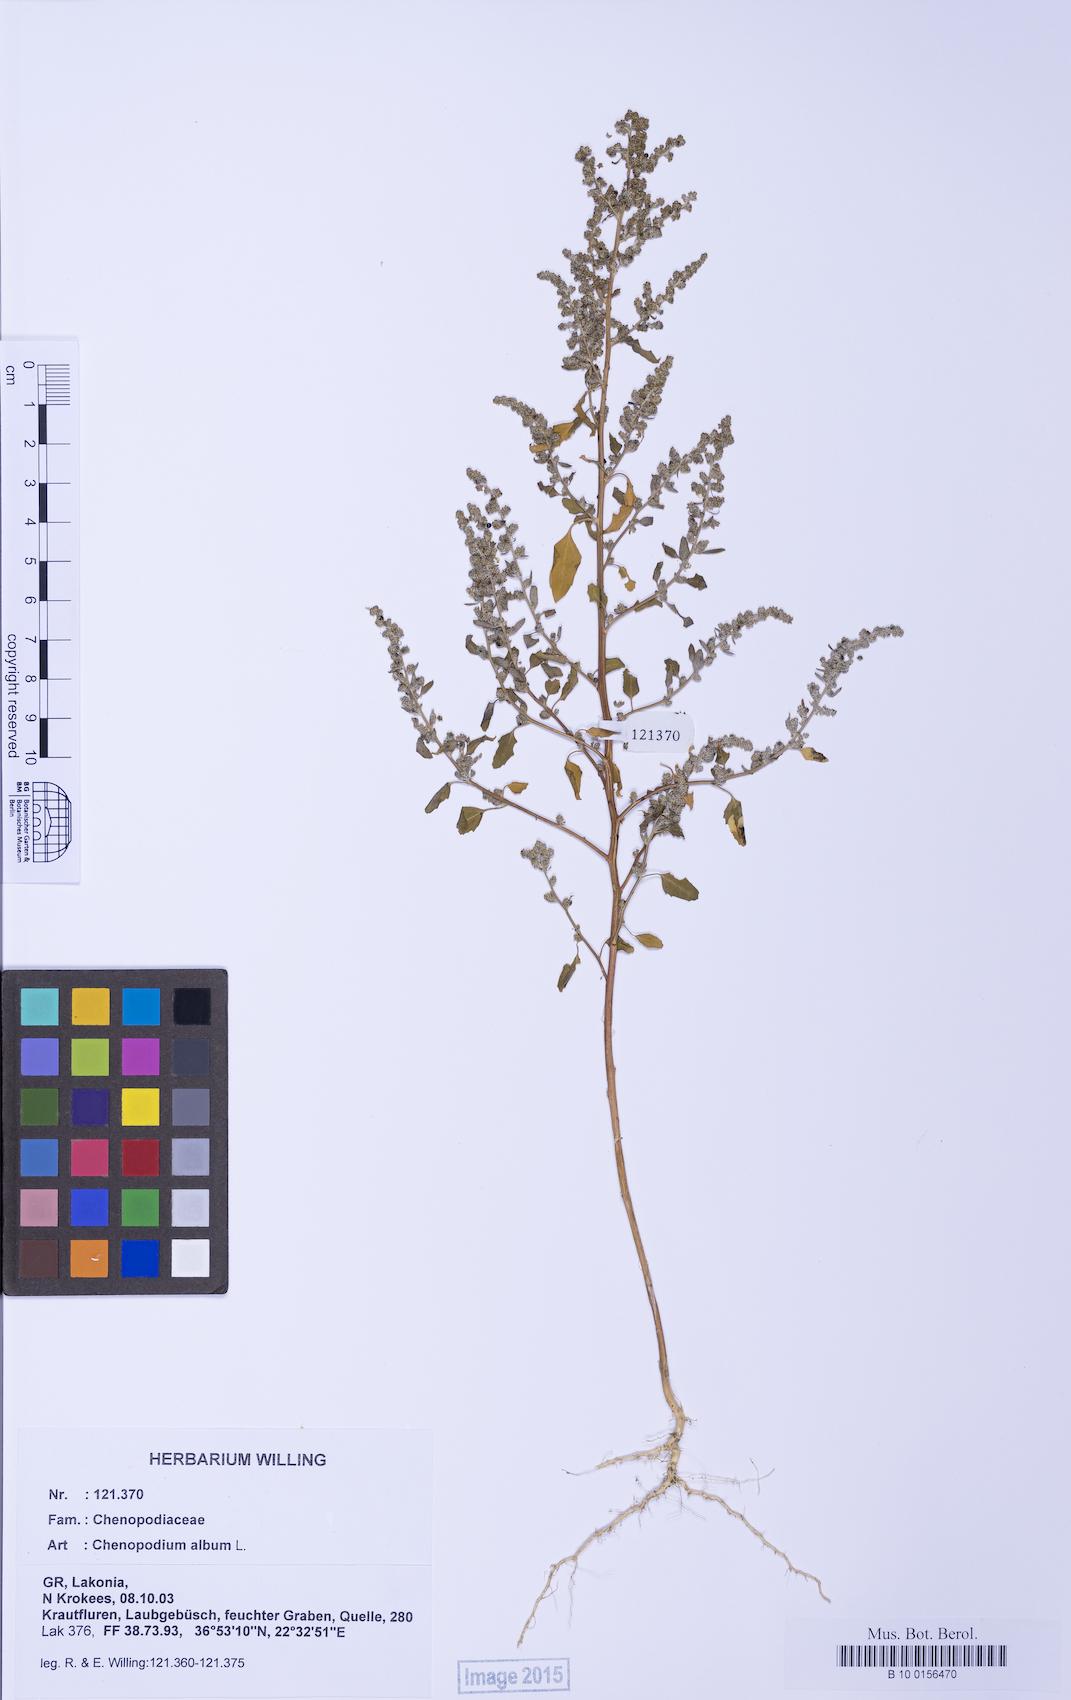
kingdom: Plantae
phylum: Tracheophyta
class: Magnoliopsida
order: Caryophyllales
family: Amaranthaceae
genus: Chenopodium
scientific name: Chenopodium album
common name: Fat-hen
